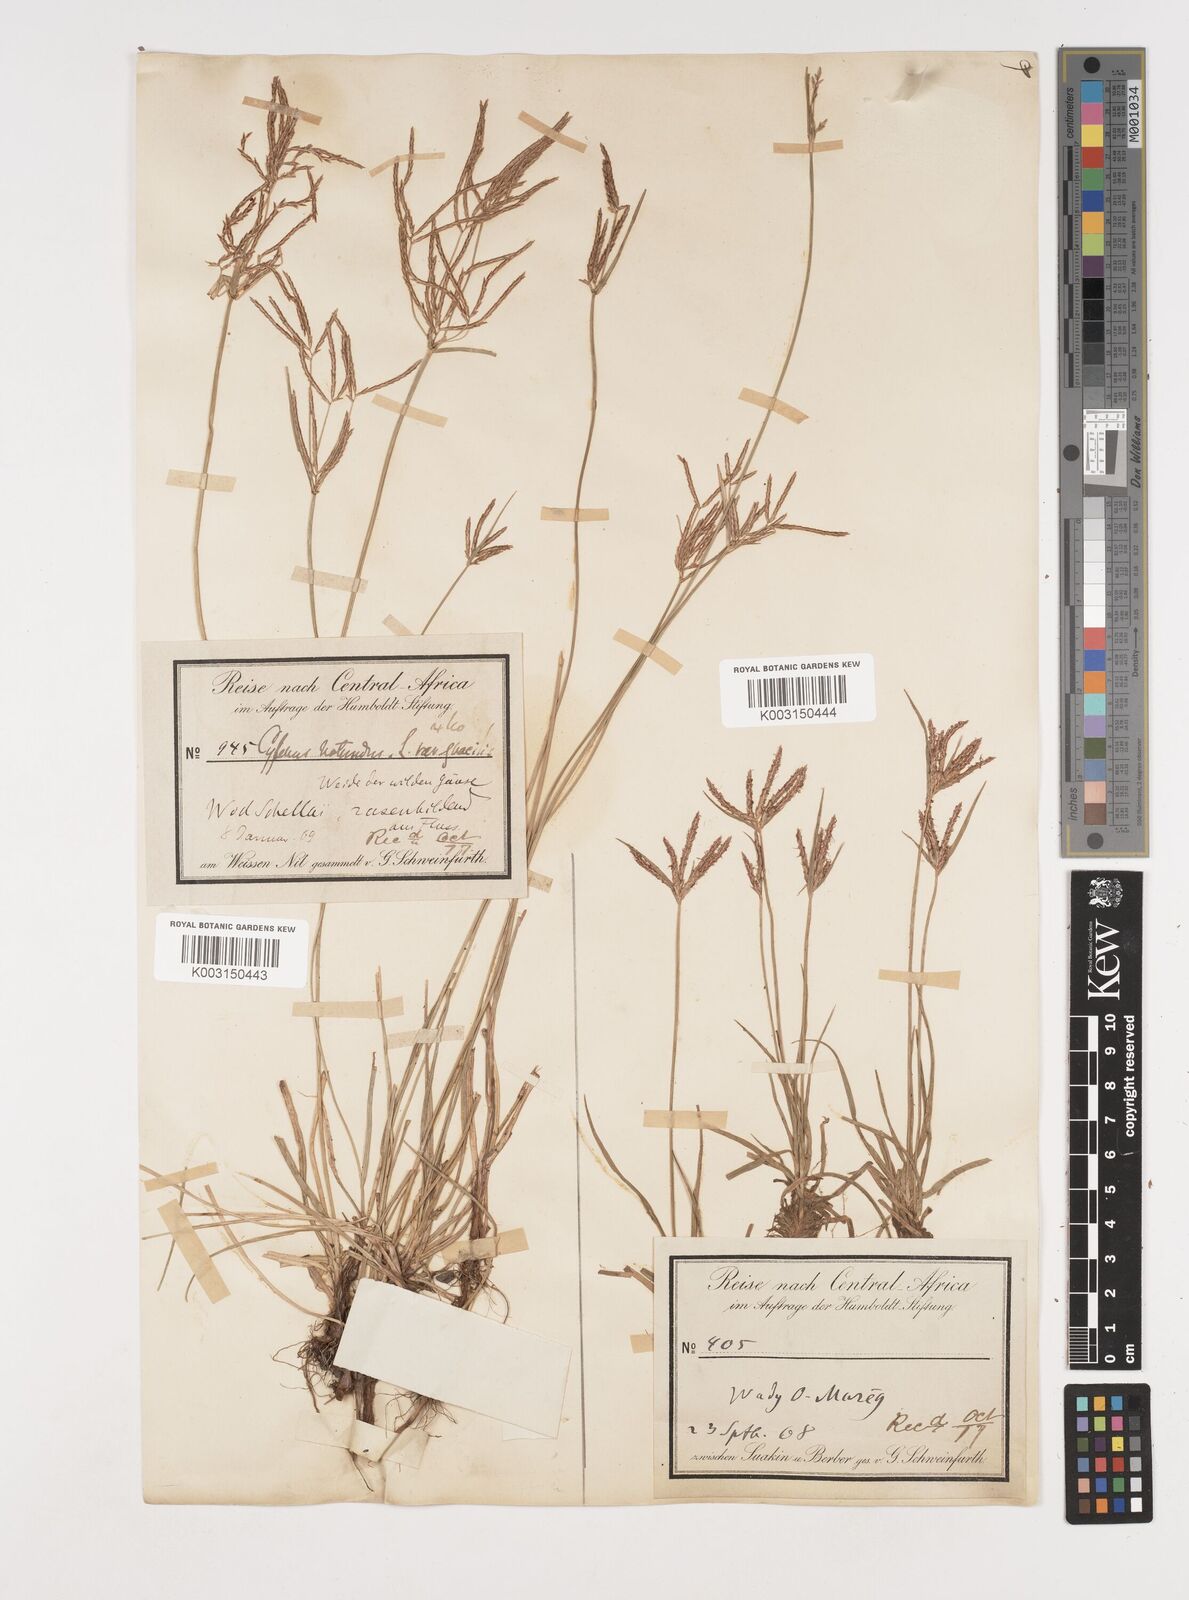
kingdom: Plantae
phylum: Tracheophyta
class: Liliopsida
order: Poales
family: Cyperaceae
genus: Cyperus
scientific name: Cyperus rotundus
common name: Nutgrass
